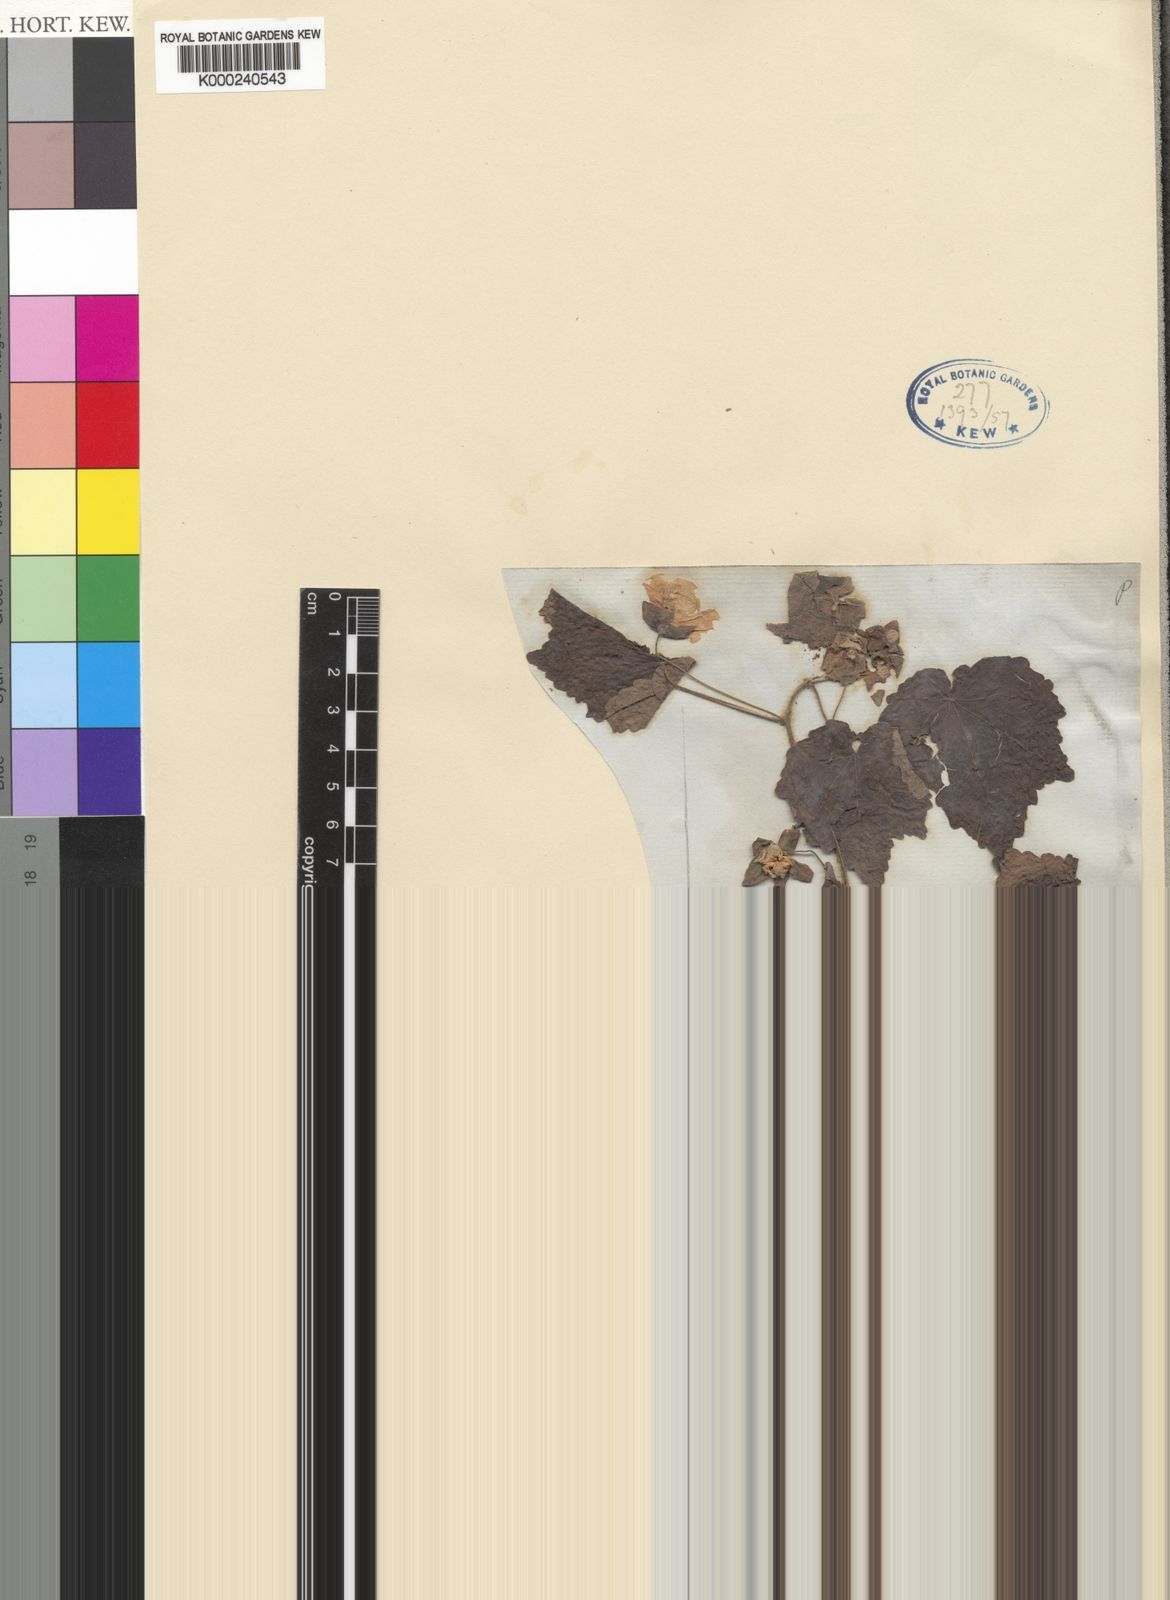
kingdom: Plantae
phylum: Tracheophyta
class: Magnoliopsida
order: Malvales
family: Malvaceae
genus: Pavonia
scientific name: Pavonia burchellii
